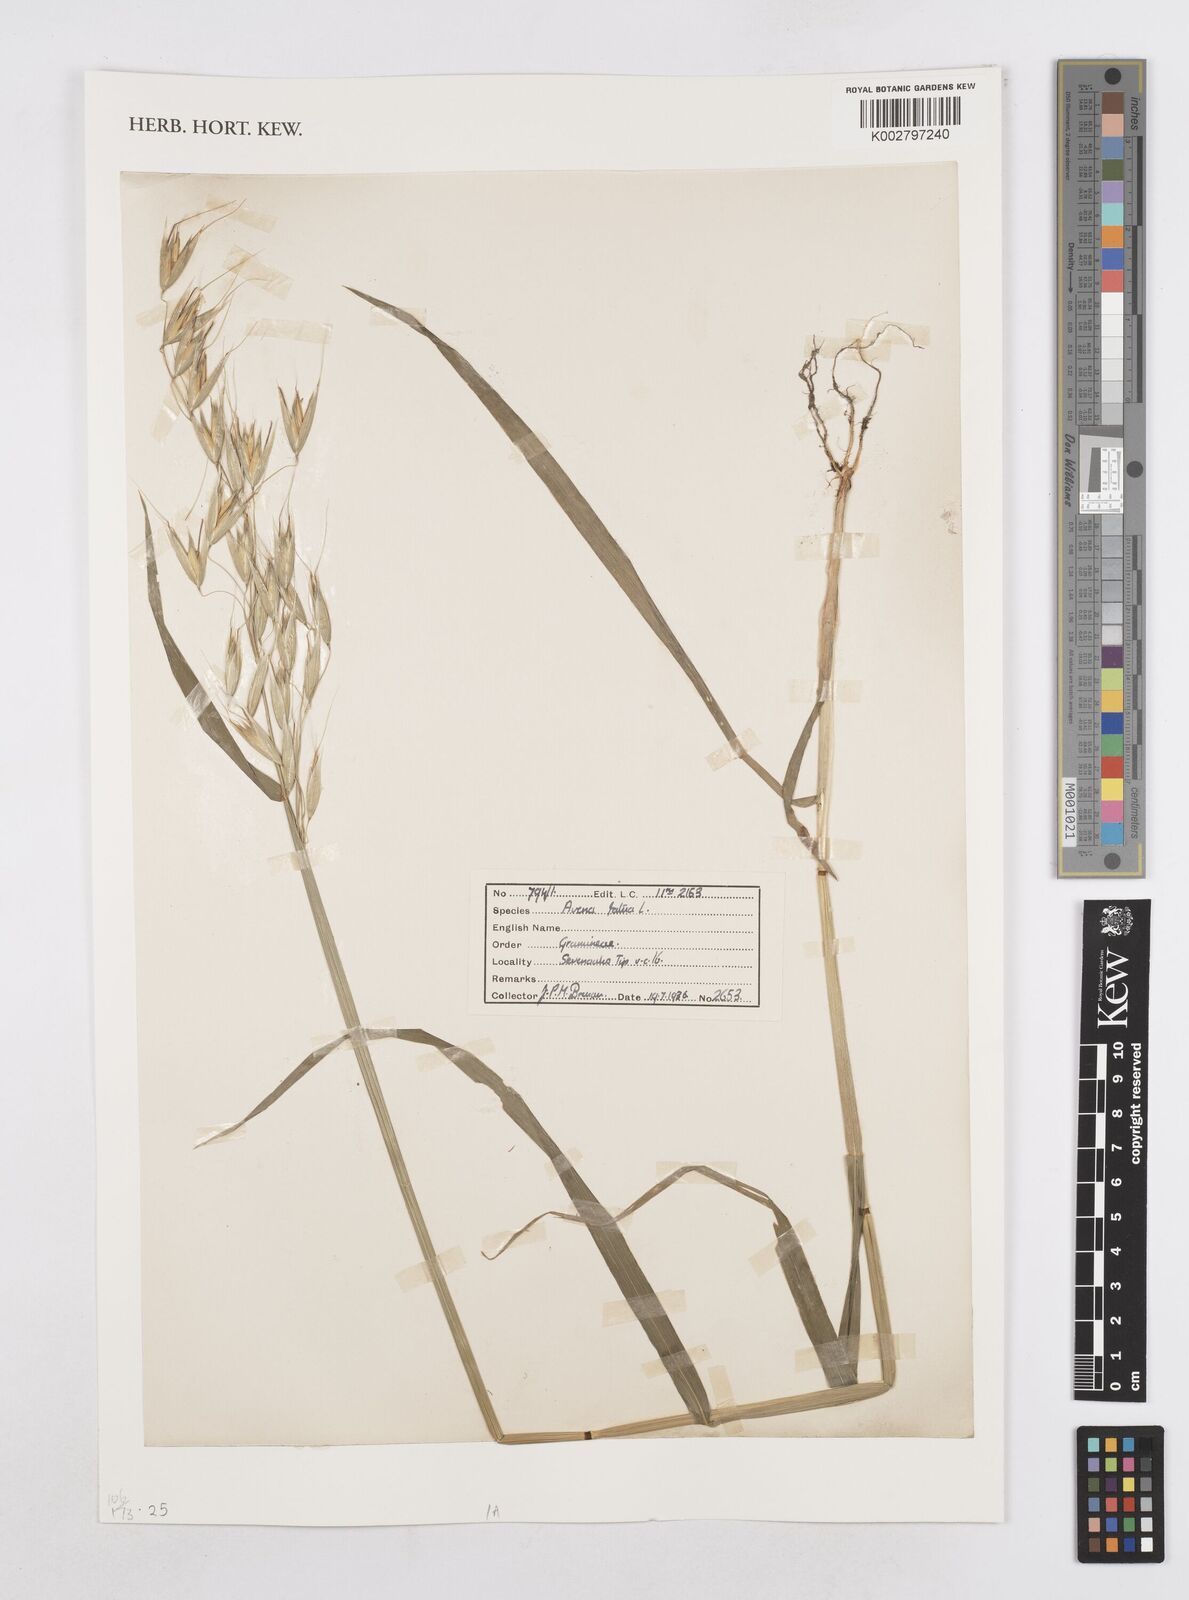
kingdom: Plantae
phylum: Tracheophyta
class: Liliopsida
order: Poales
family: Poaceae
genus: Avena
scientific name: Avena fatua
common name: Wild oat
